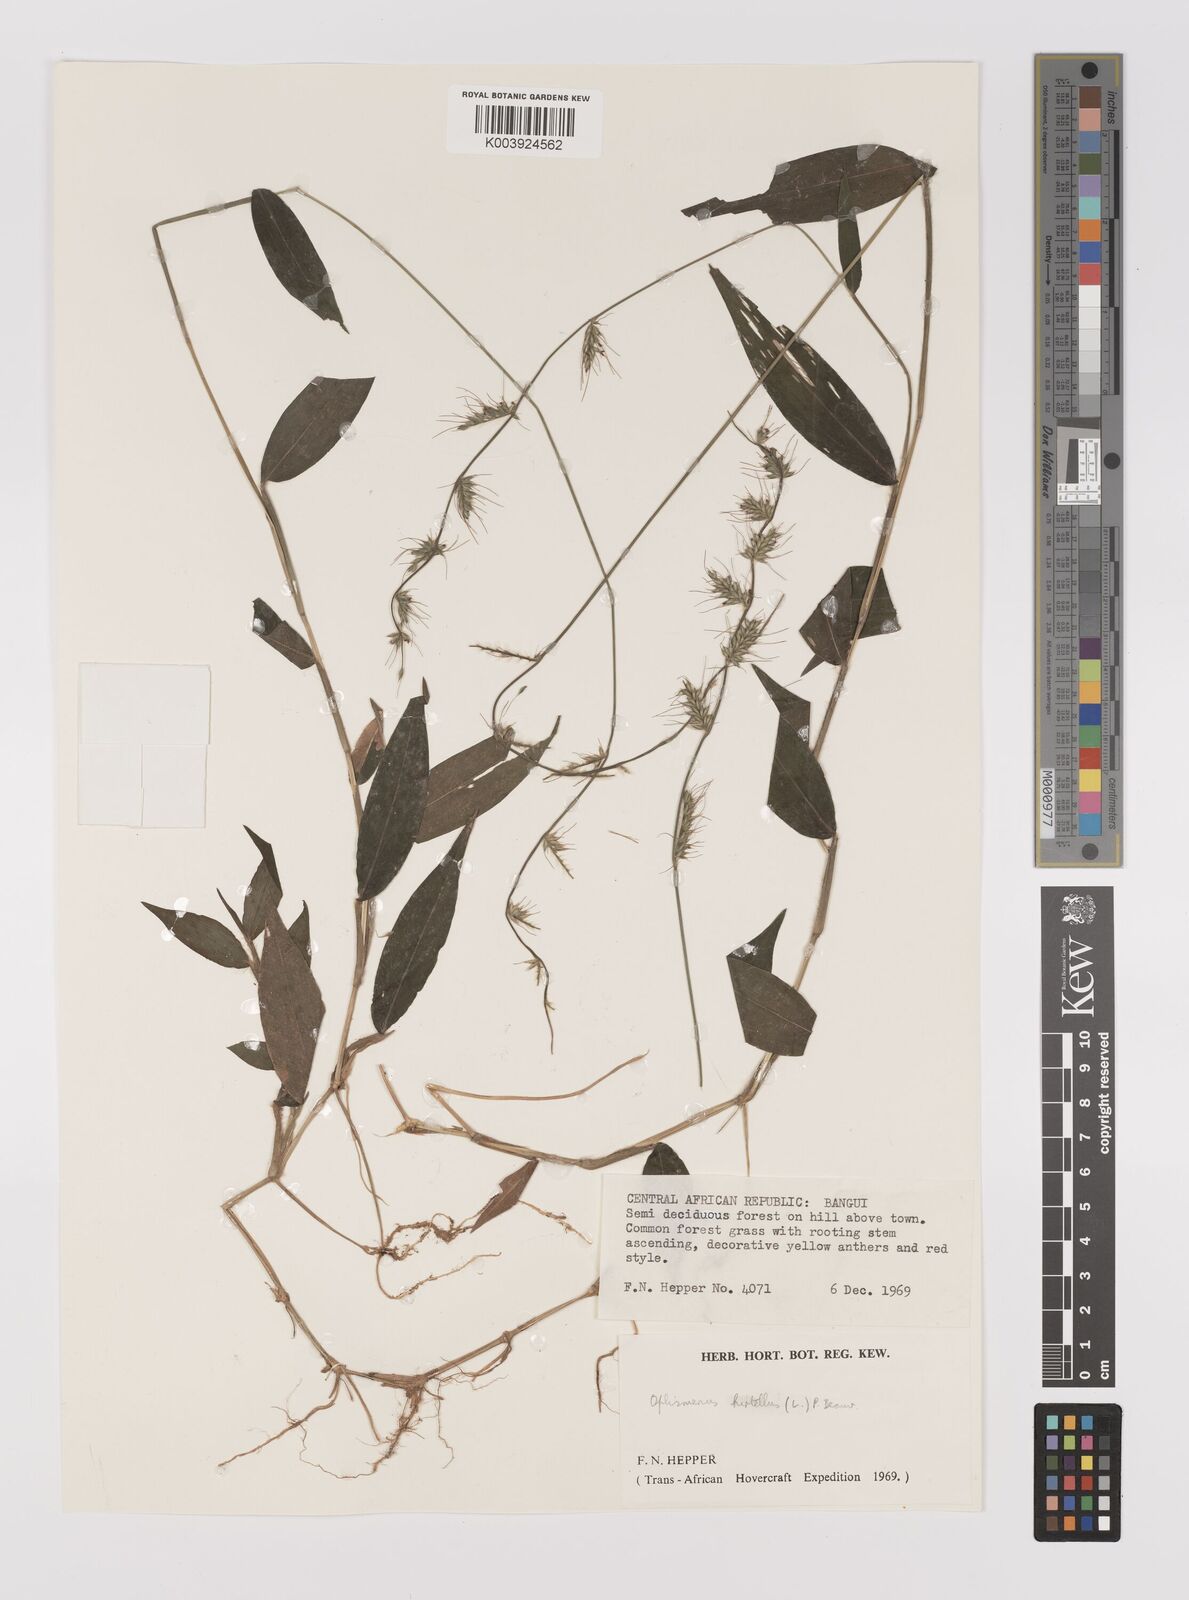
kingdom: Plantae
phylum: Tracheophyta
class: Liliopsida
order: Poales
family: Poaceae
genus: Oplismenus
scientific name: Oplismenus hirtellus
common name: Basketgrass
